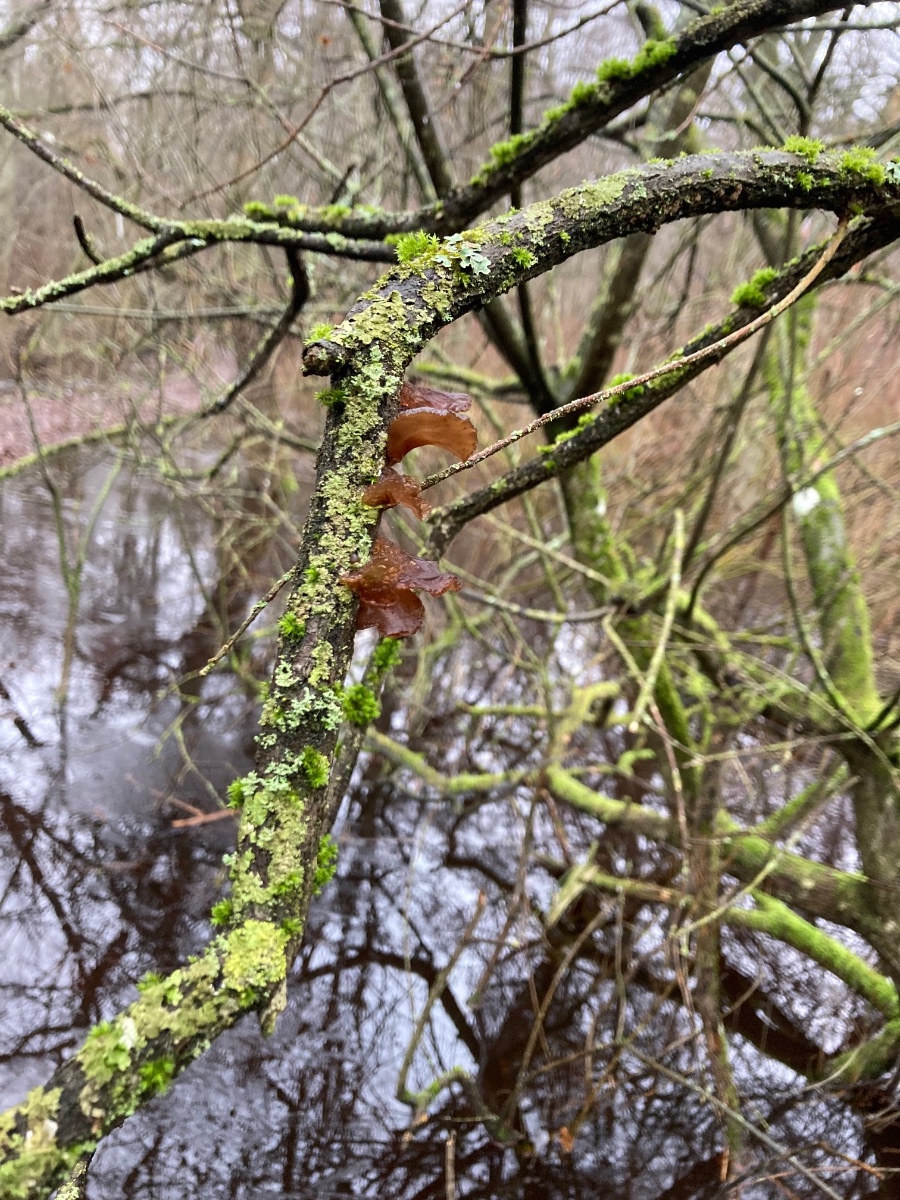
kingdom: Fungi
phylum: Basidiomycota
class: Agaricomycetes
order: Auriculariales
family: Auriculariaceae
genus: Exidia
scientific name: Exidia recisa
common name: pile-bævretop
